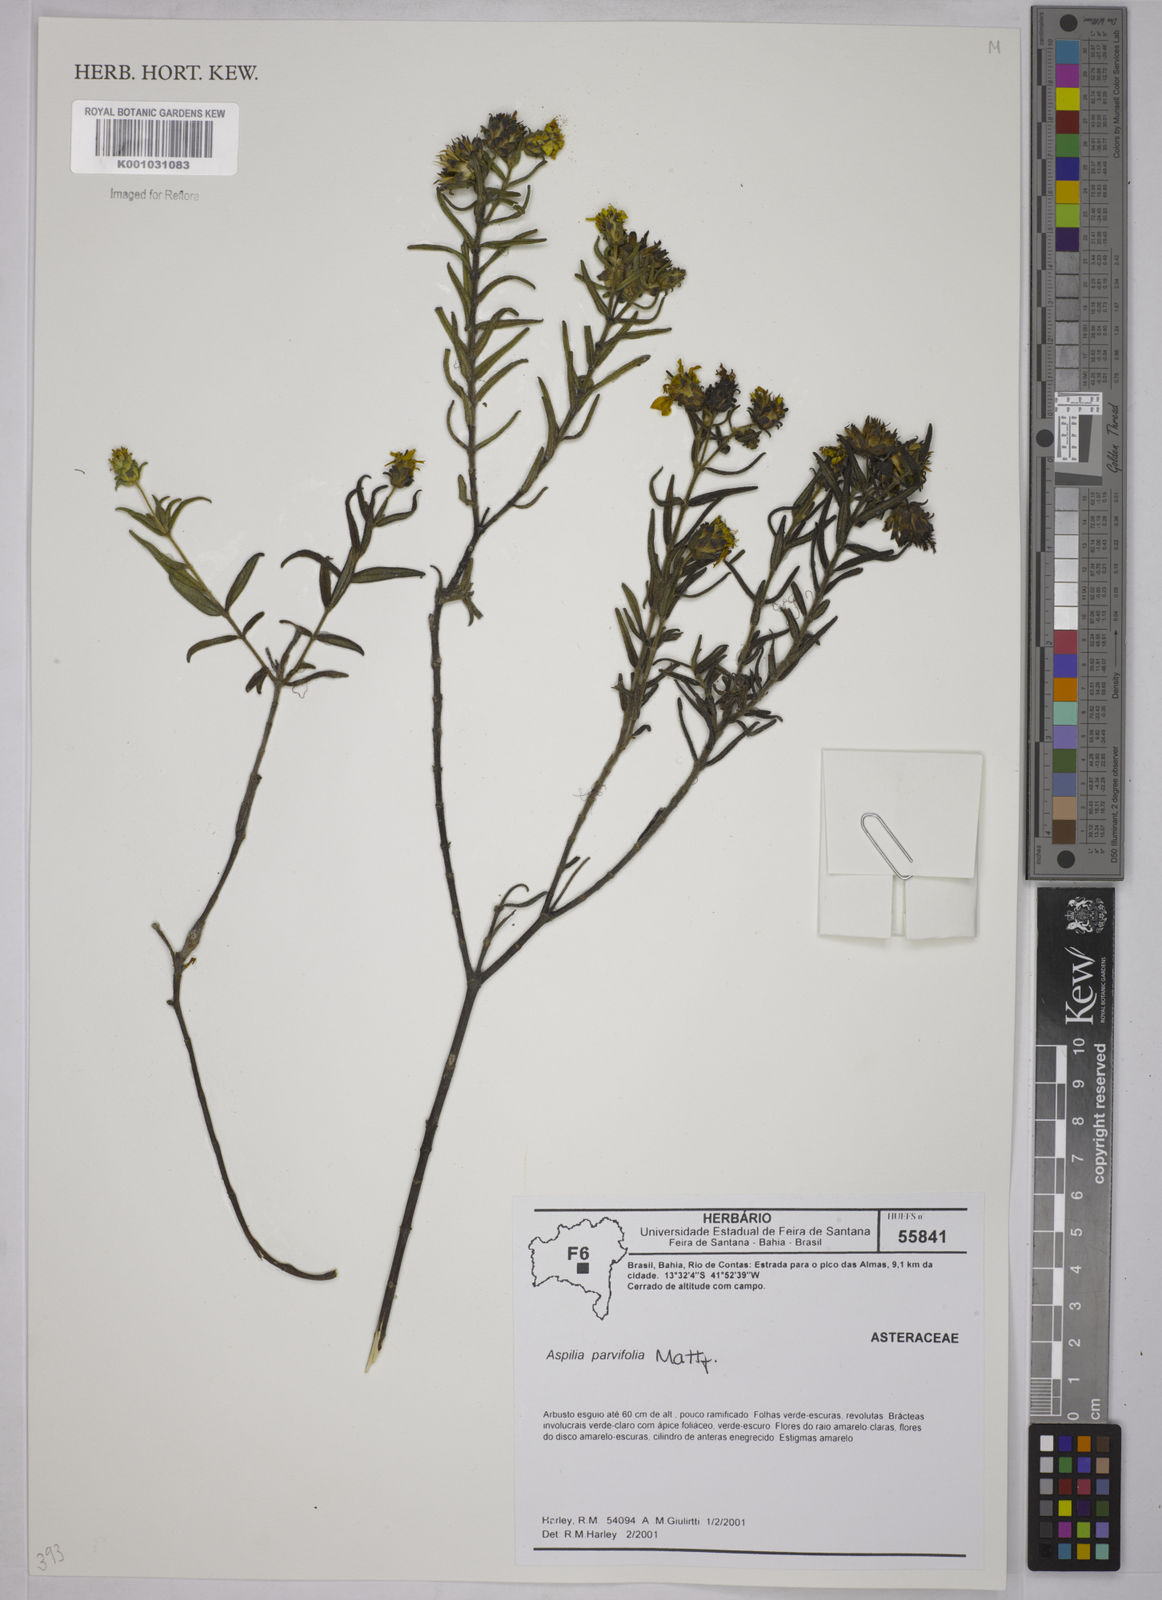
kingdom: Plantae
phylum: Tracheophyta
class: Magnoliopsida
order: Asterales
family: Asteraceae
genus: Aspilia
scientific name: Aspilia foliosa
